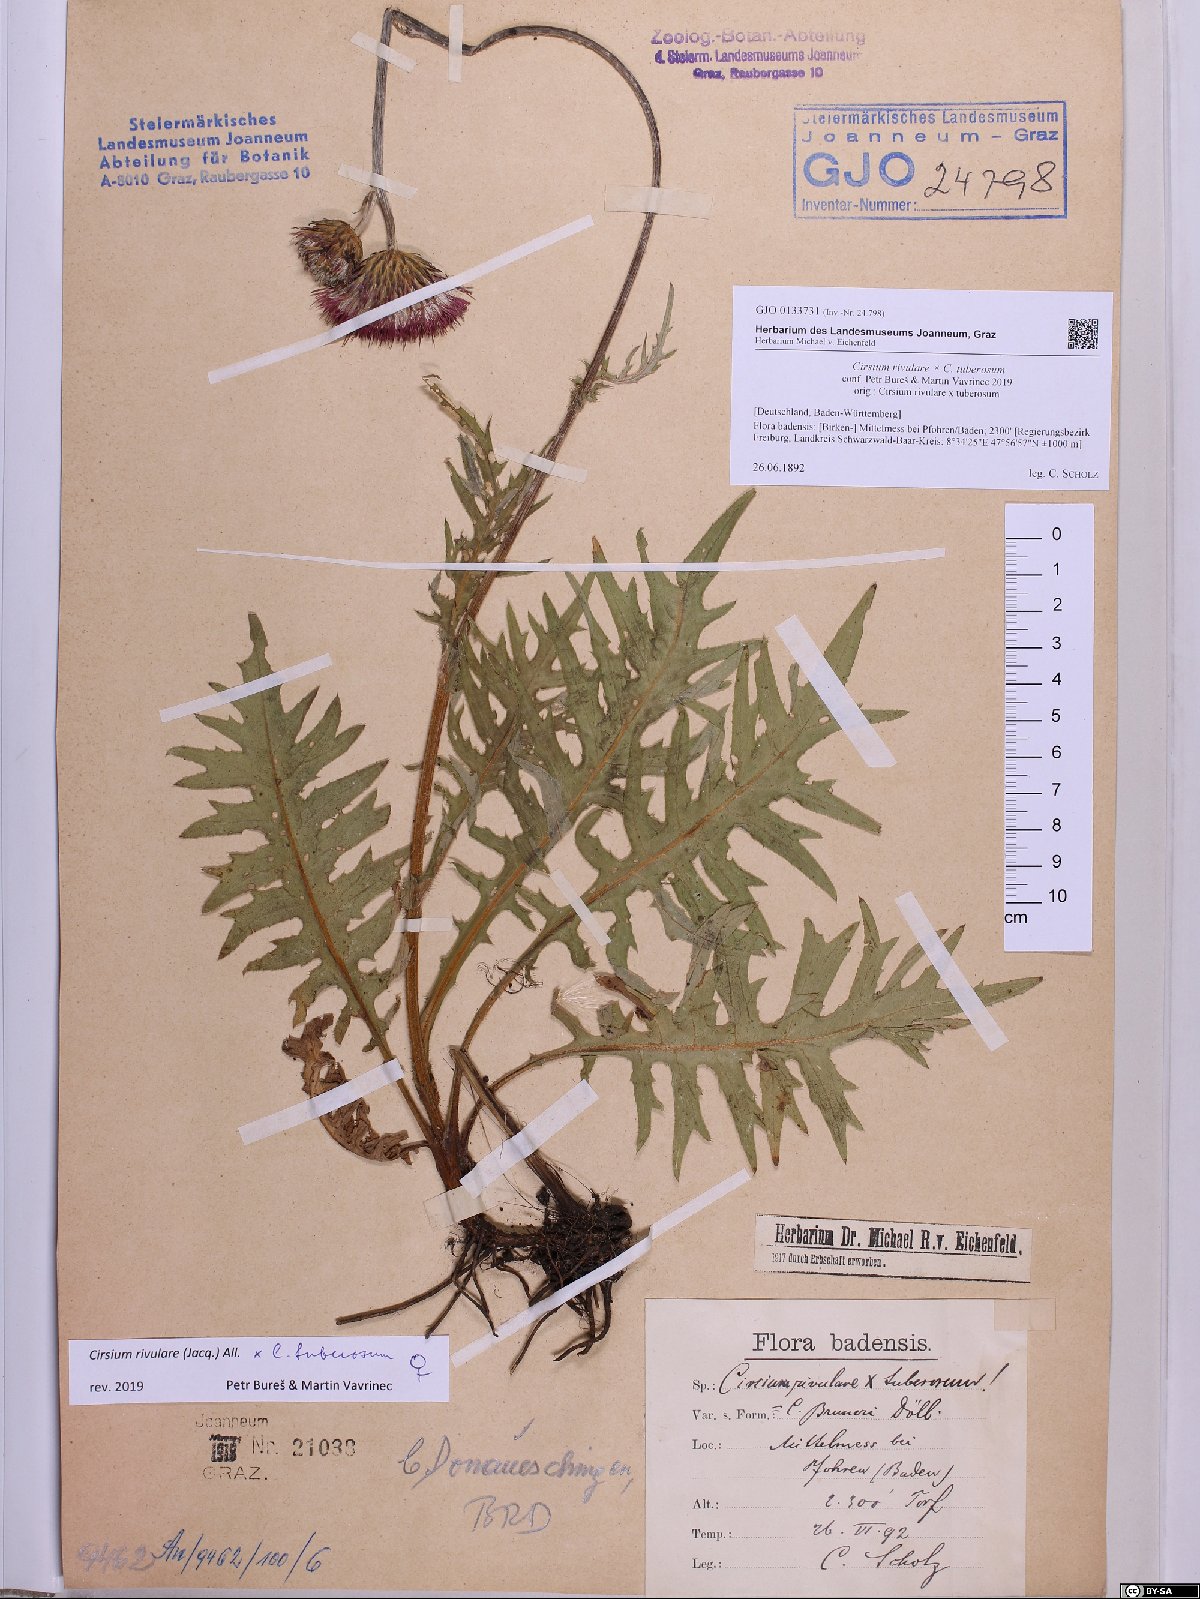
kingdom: Plantae
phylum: Tracheophyta
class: Magnoliopsida
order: Asterales
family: Asteraceae
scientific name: Asteraceae
